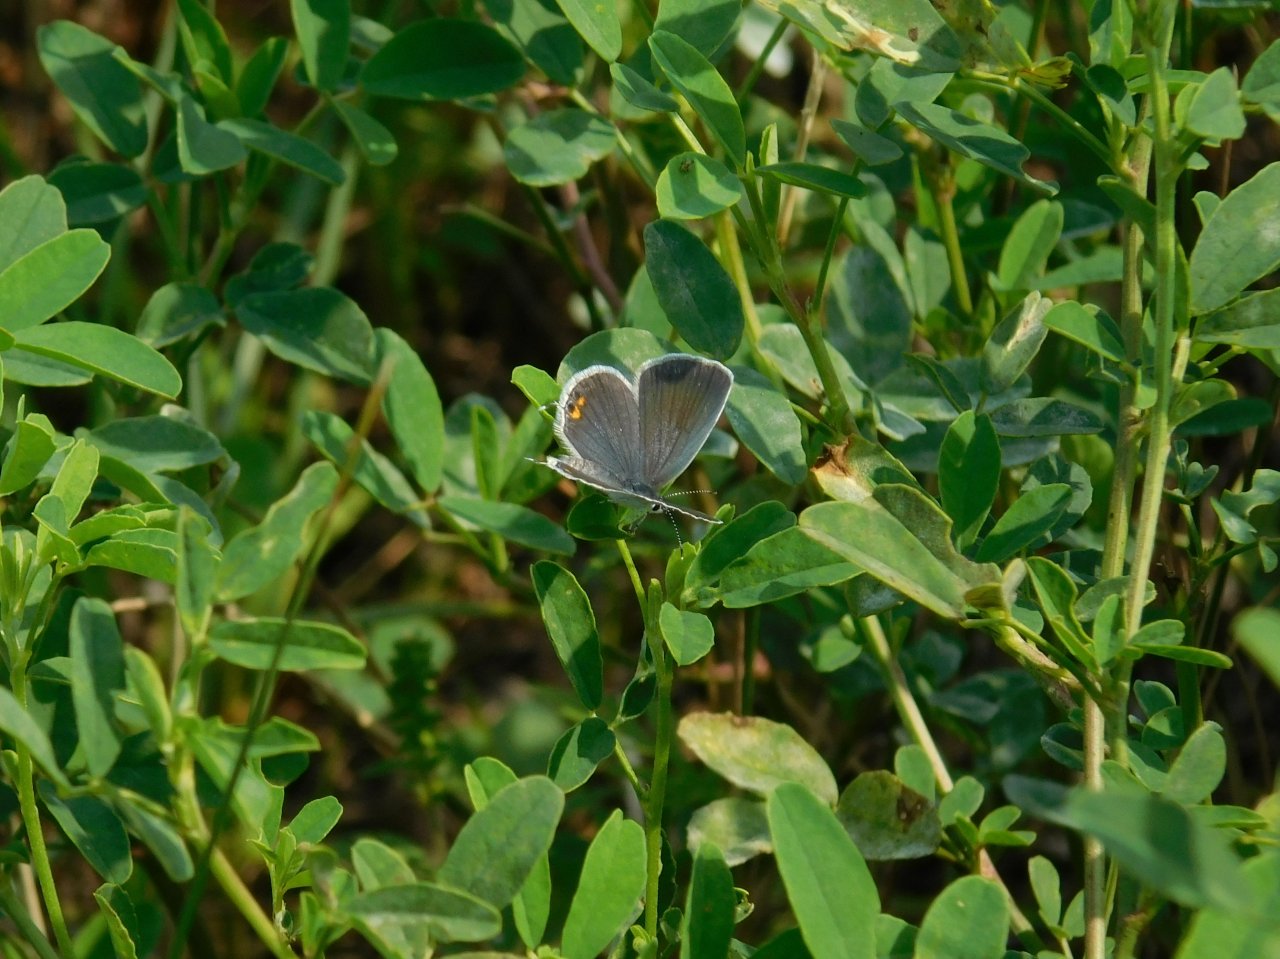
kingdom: Animalia
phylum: Arthropoda
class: Insecta
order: Lepidoptera
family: Lycaenidae
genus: Elkalyce
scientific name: Elkalyce comyntas
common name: Eastern Tailed-Blue
